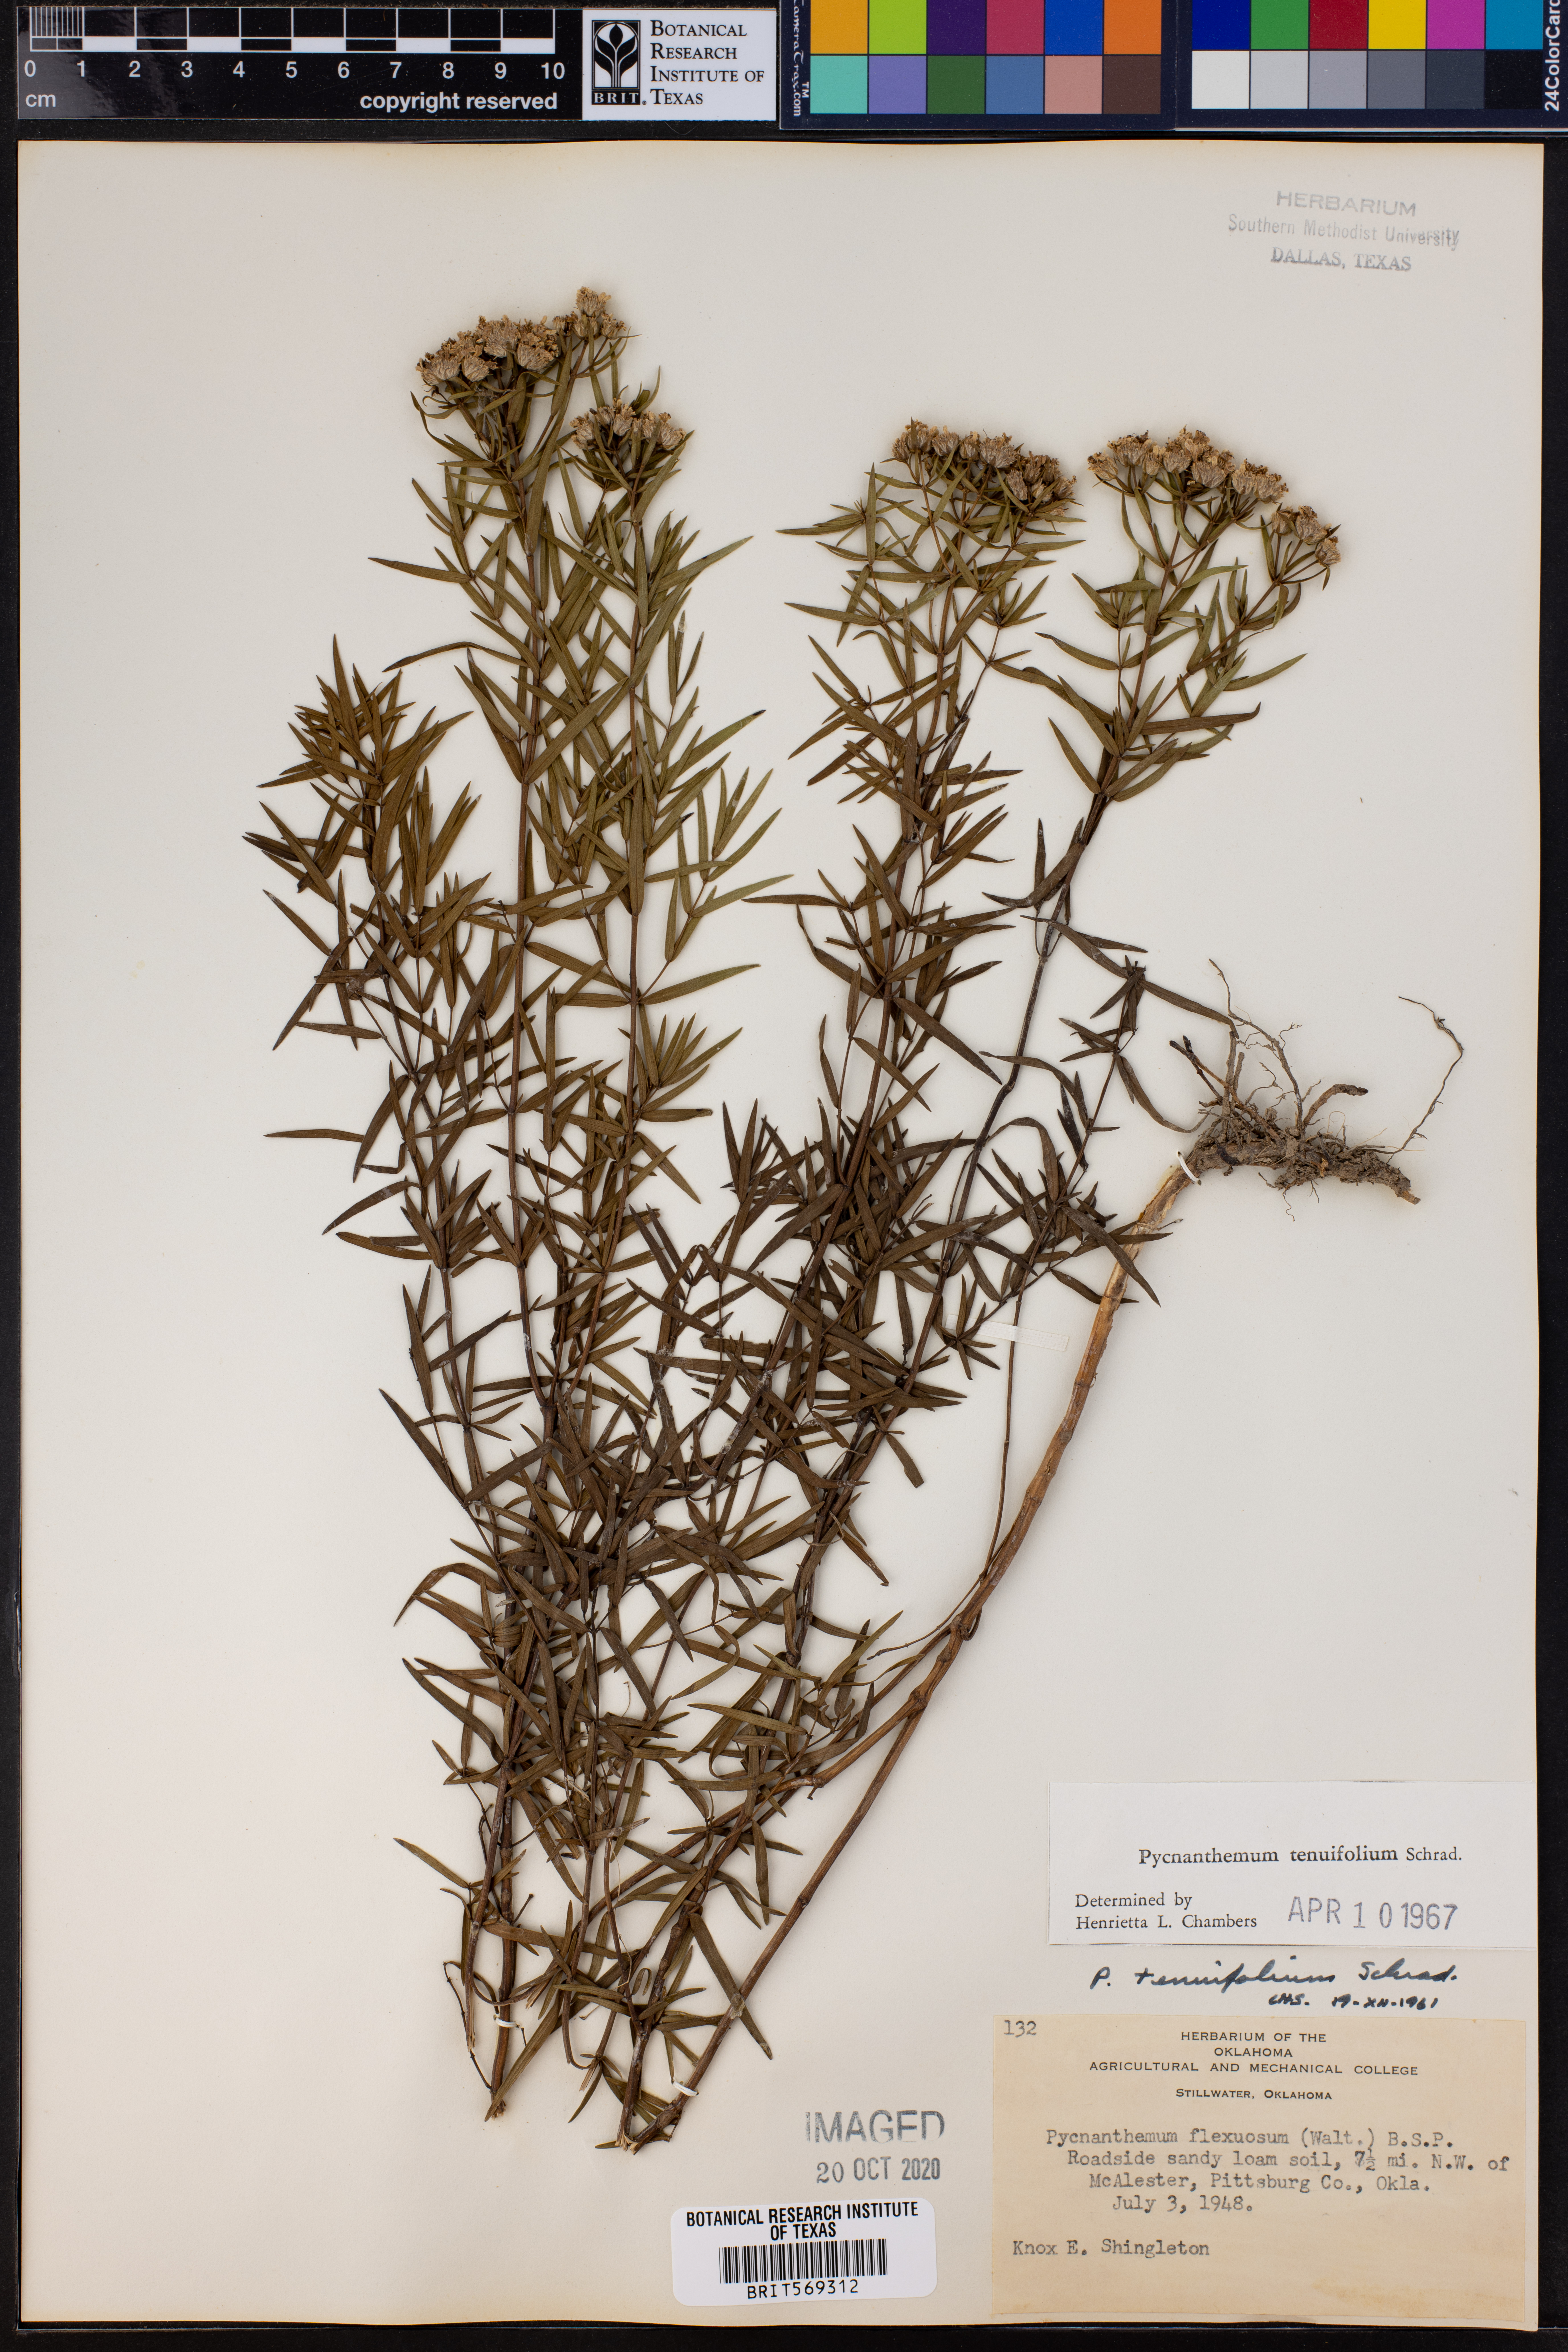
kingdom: Plantae
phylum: Tracheophyta
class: Magnoliopsida
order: Lamiales
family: Lamiaceae
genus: Pycnanthemum
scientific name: Pycnanthemum tenuifolium
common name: Narrow-leaf mountain-mint
